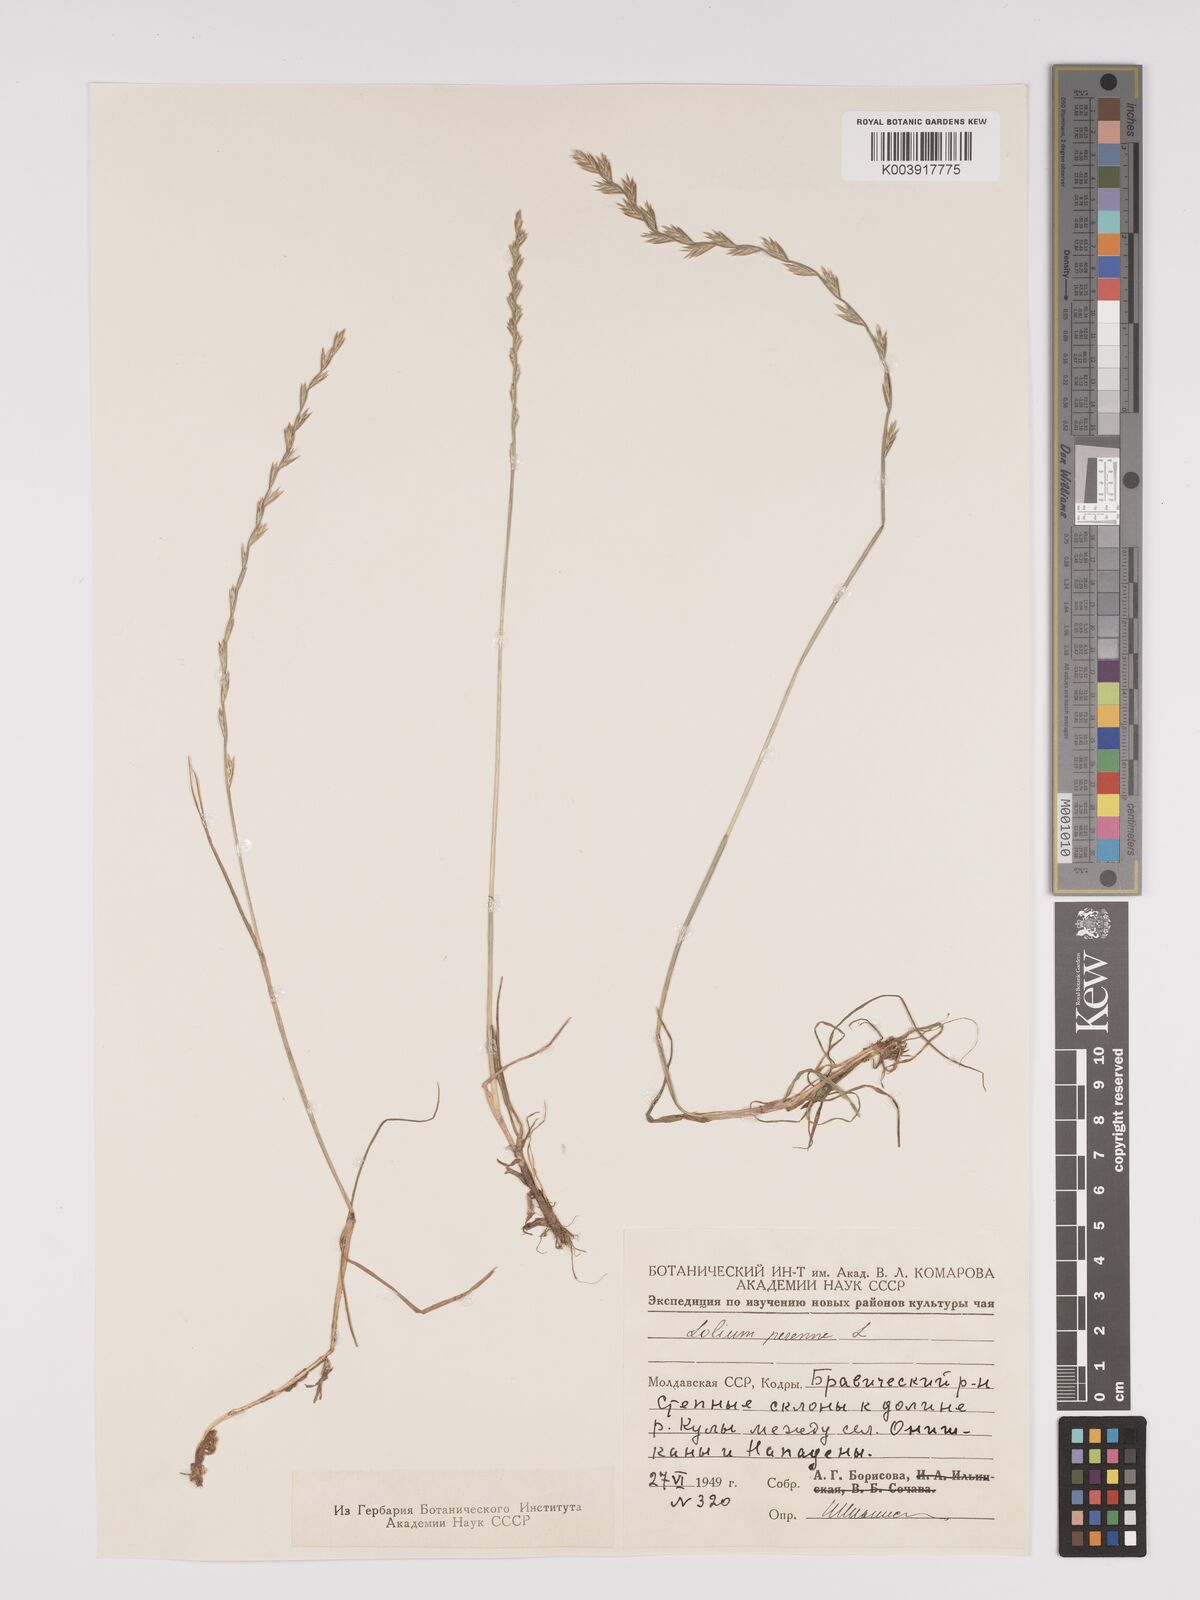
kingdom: Plantae
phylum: Tracheophyta
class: Liliopsida
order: Poales
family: Poaceae
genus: Lolium
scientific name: Lolium perenne
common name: Perennial ryegrass
